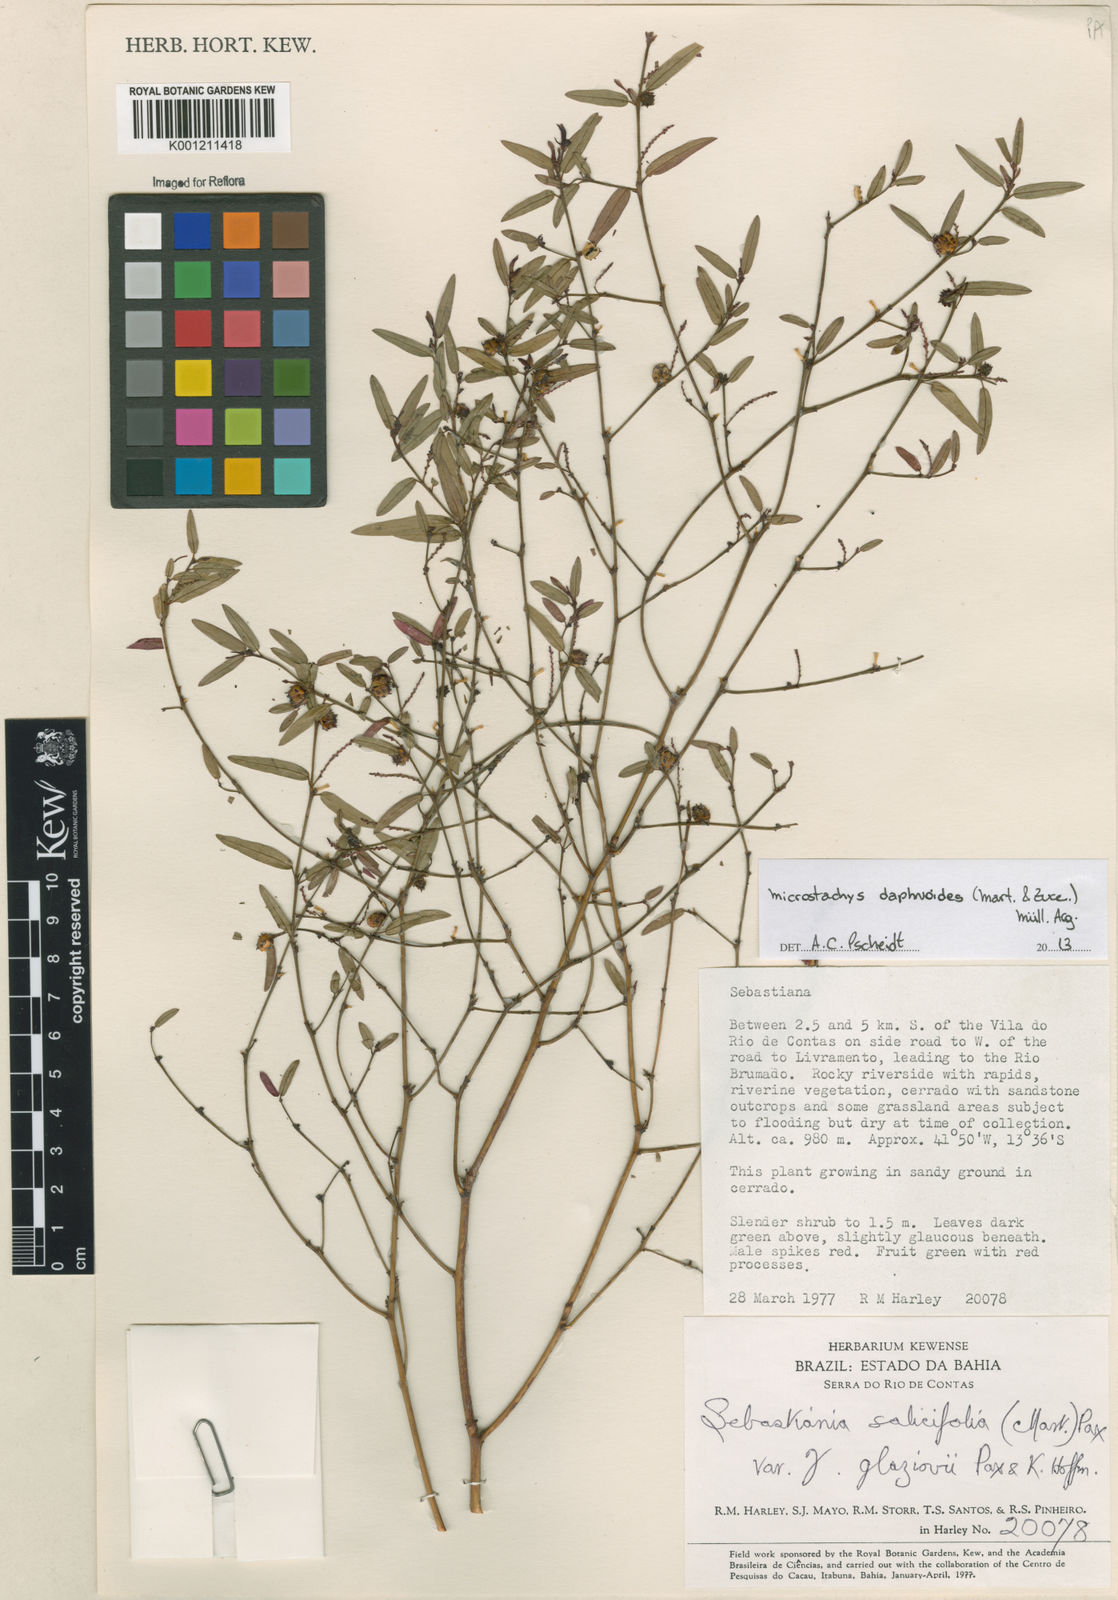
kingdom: Plantae
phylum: Tracheophyta
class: Magnoliopsida
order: Malpighiales
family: Euphorbiaceae
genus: Microstachys
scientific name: Microstachys
